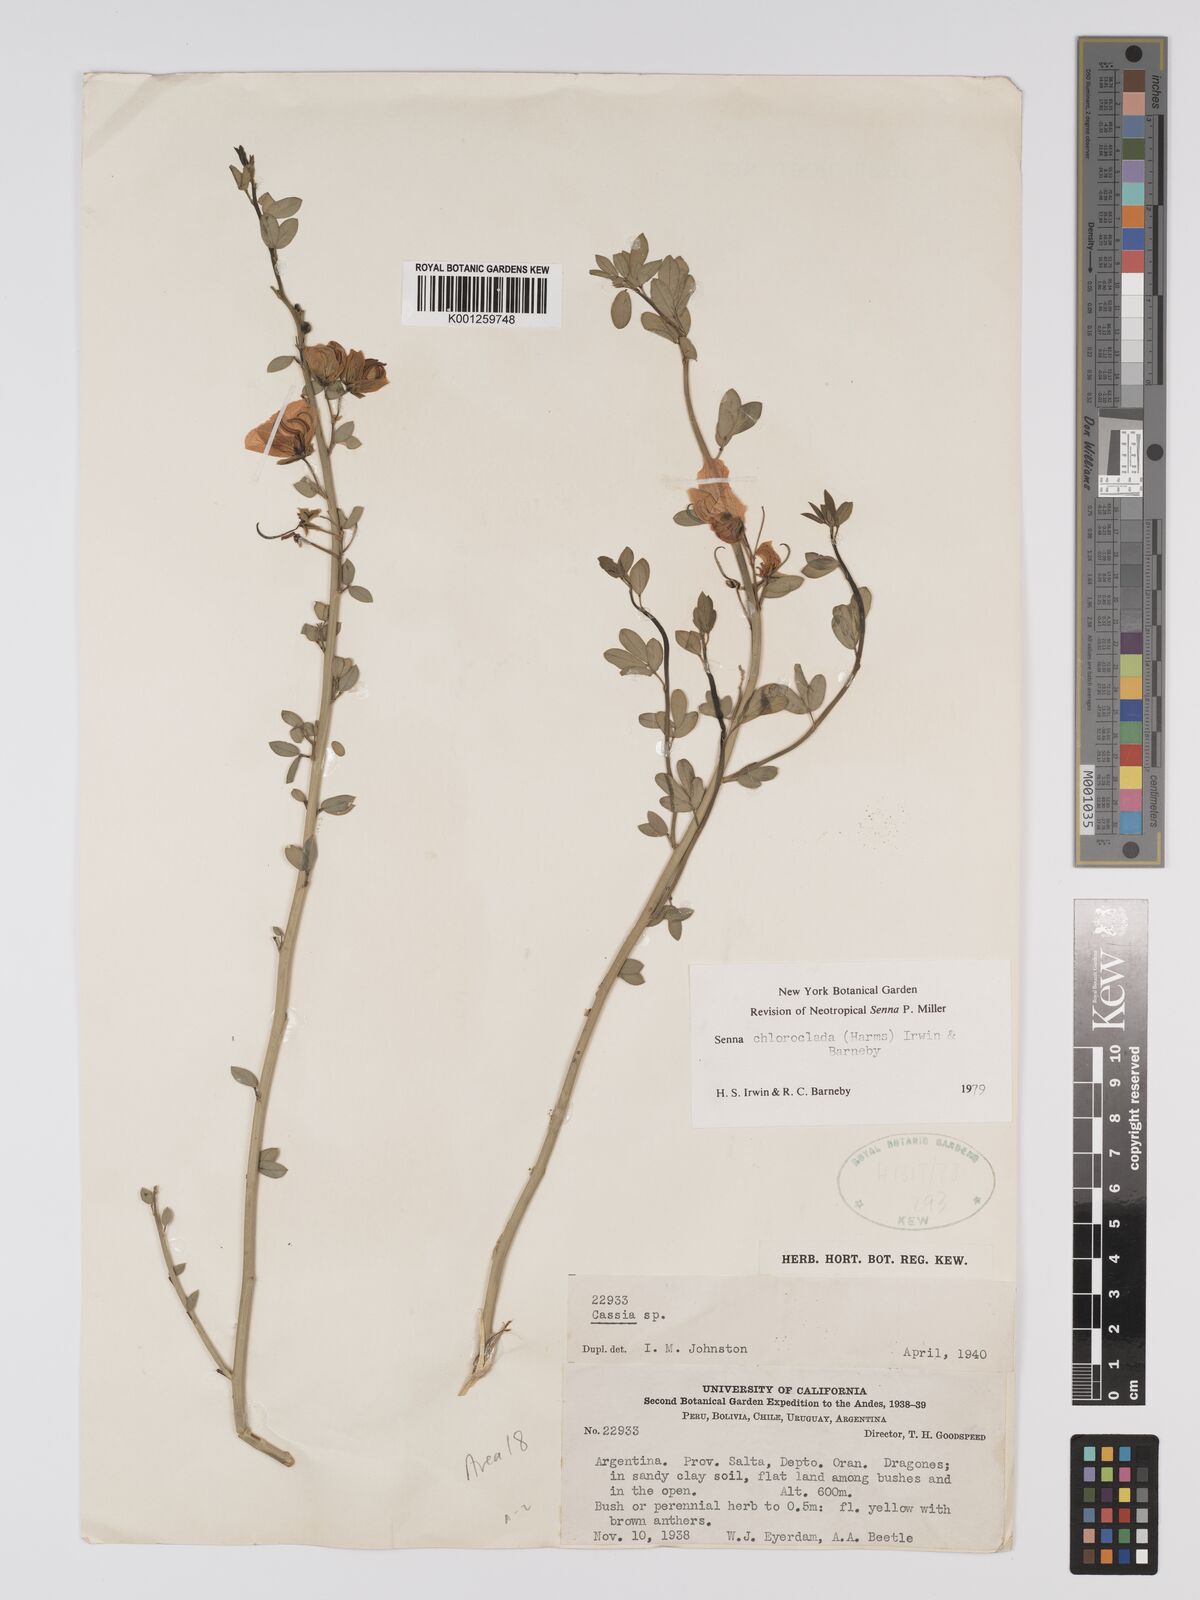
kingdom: Plantae
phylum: Tracheophyta
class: Magnoliopsida
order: Fabales
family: Fabaceae
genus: Senna
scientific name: Senna chloroclada
